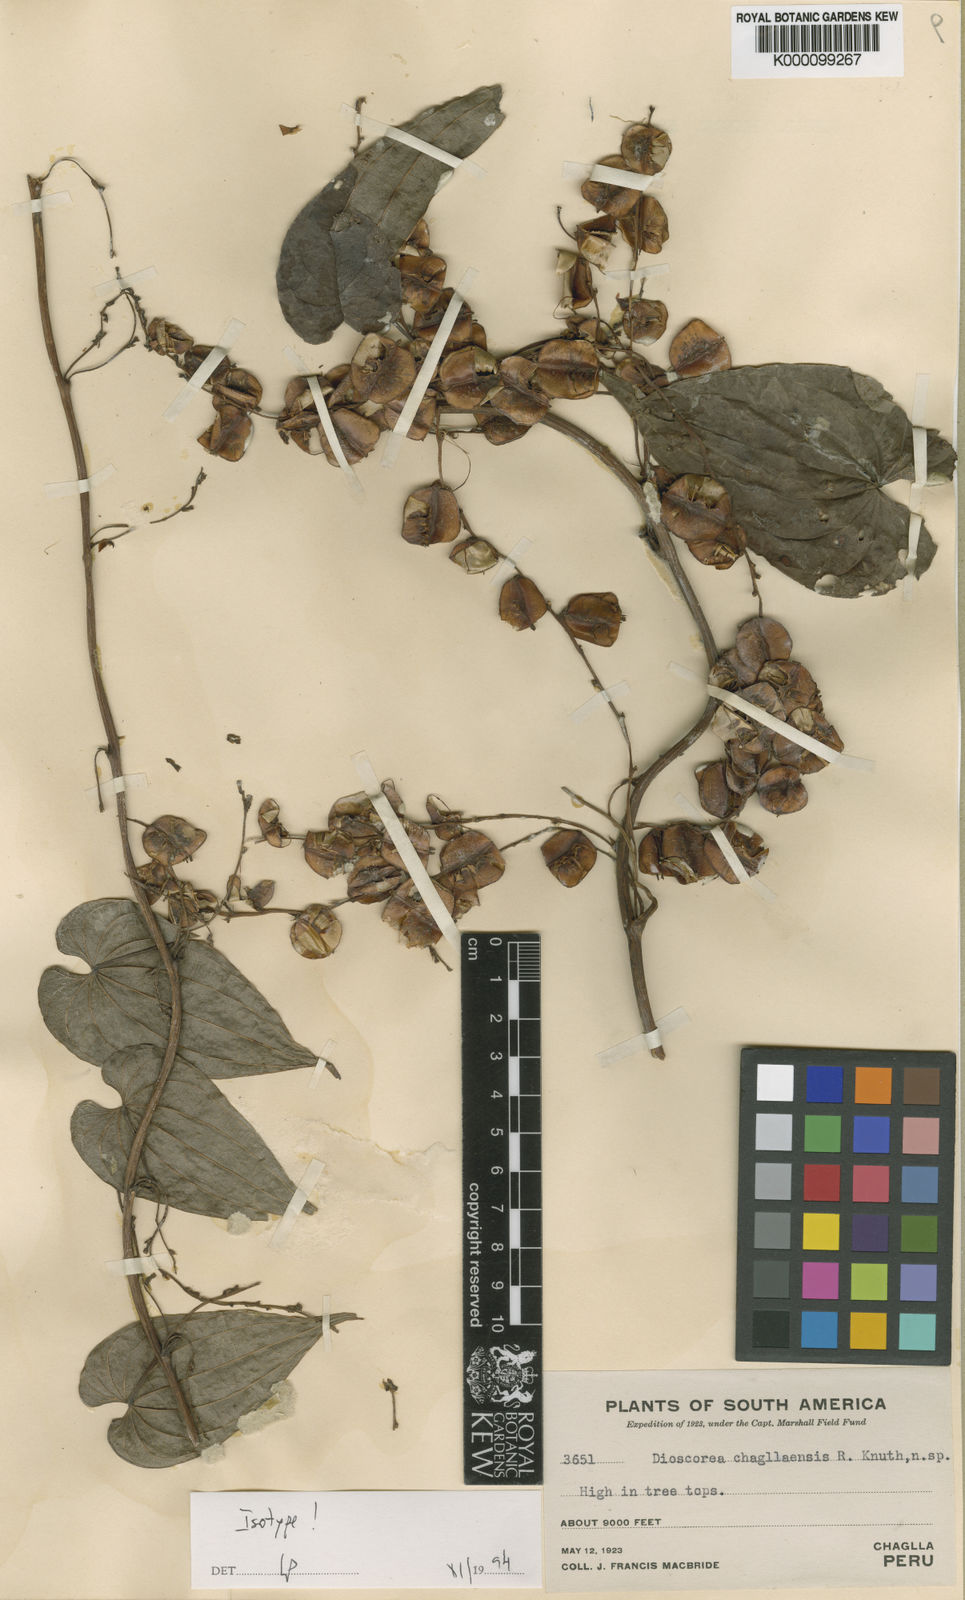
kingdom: Plantae
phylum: Tracheophyta
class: Liliopsida
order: Dioscoreales
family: Dioscoreaceae
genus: Dioscorea
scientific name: Dioscorea chagllaensis
